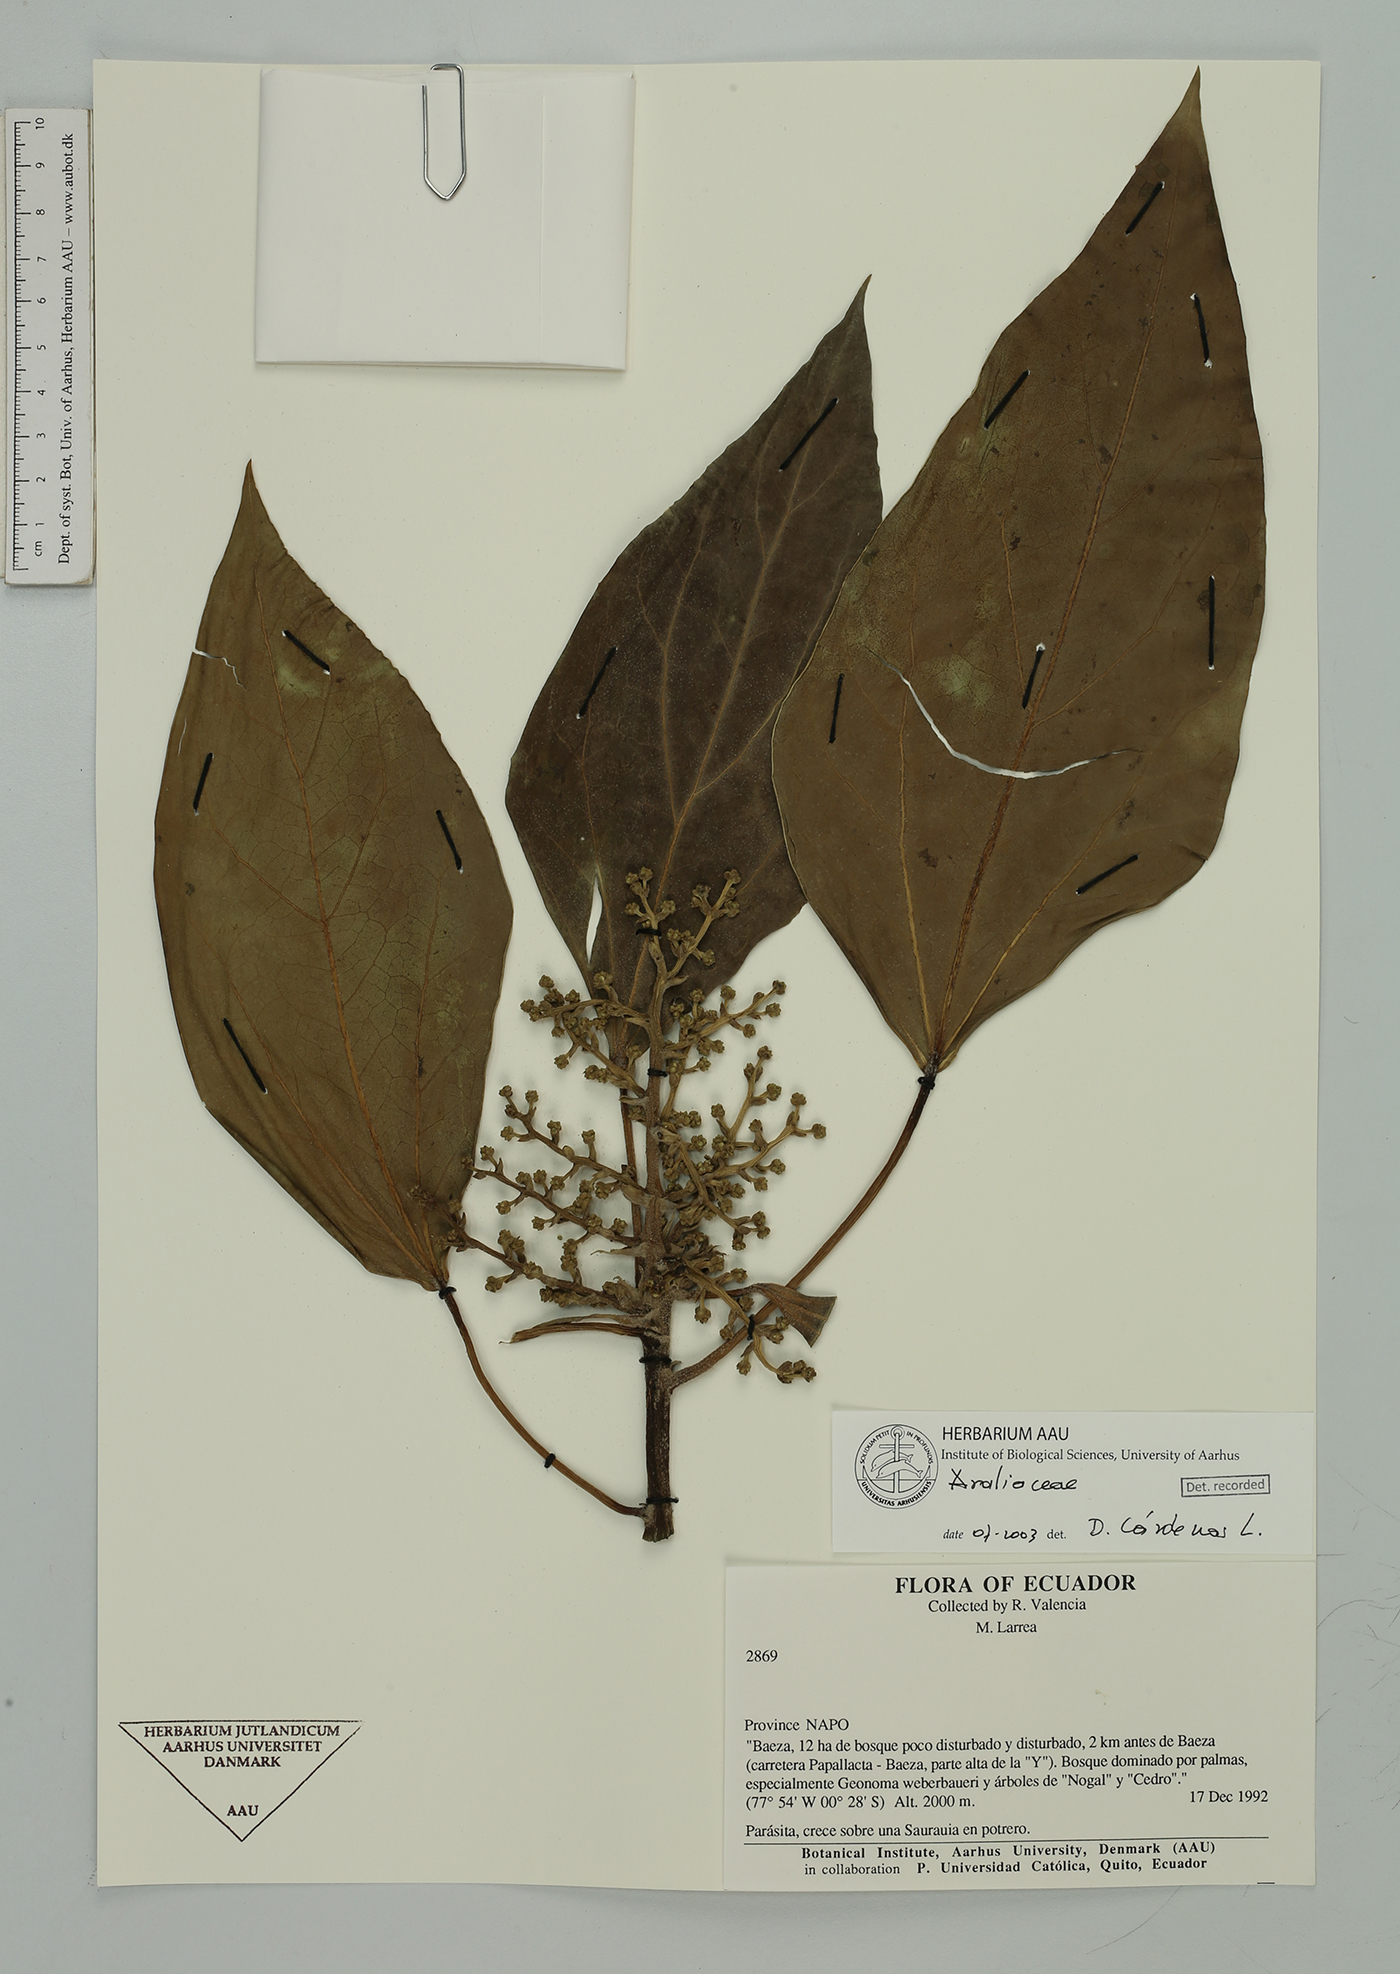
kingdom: Plantae
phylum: Tracheophyta
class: Magnoliopsida
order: Apiales
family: Araliaceae
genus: Oreopanax
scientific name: Oreopanax
